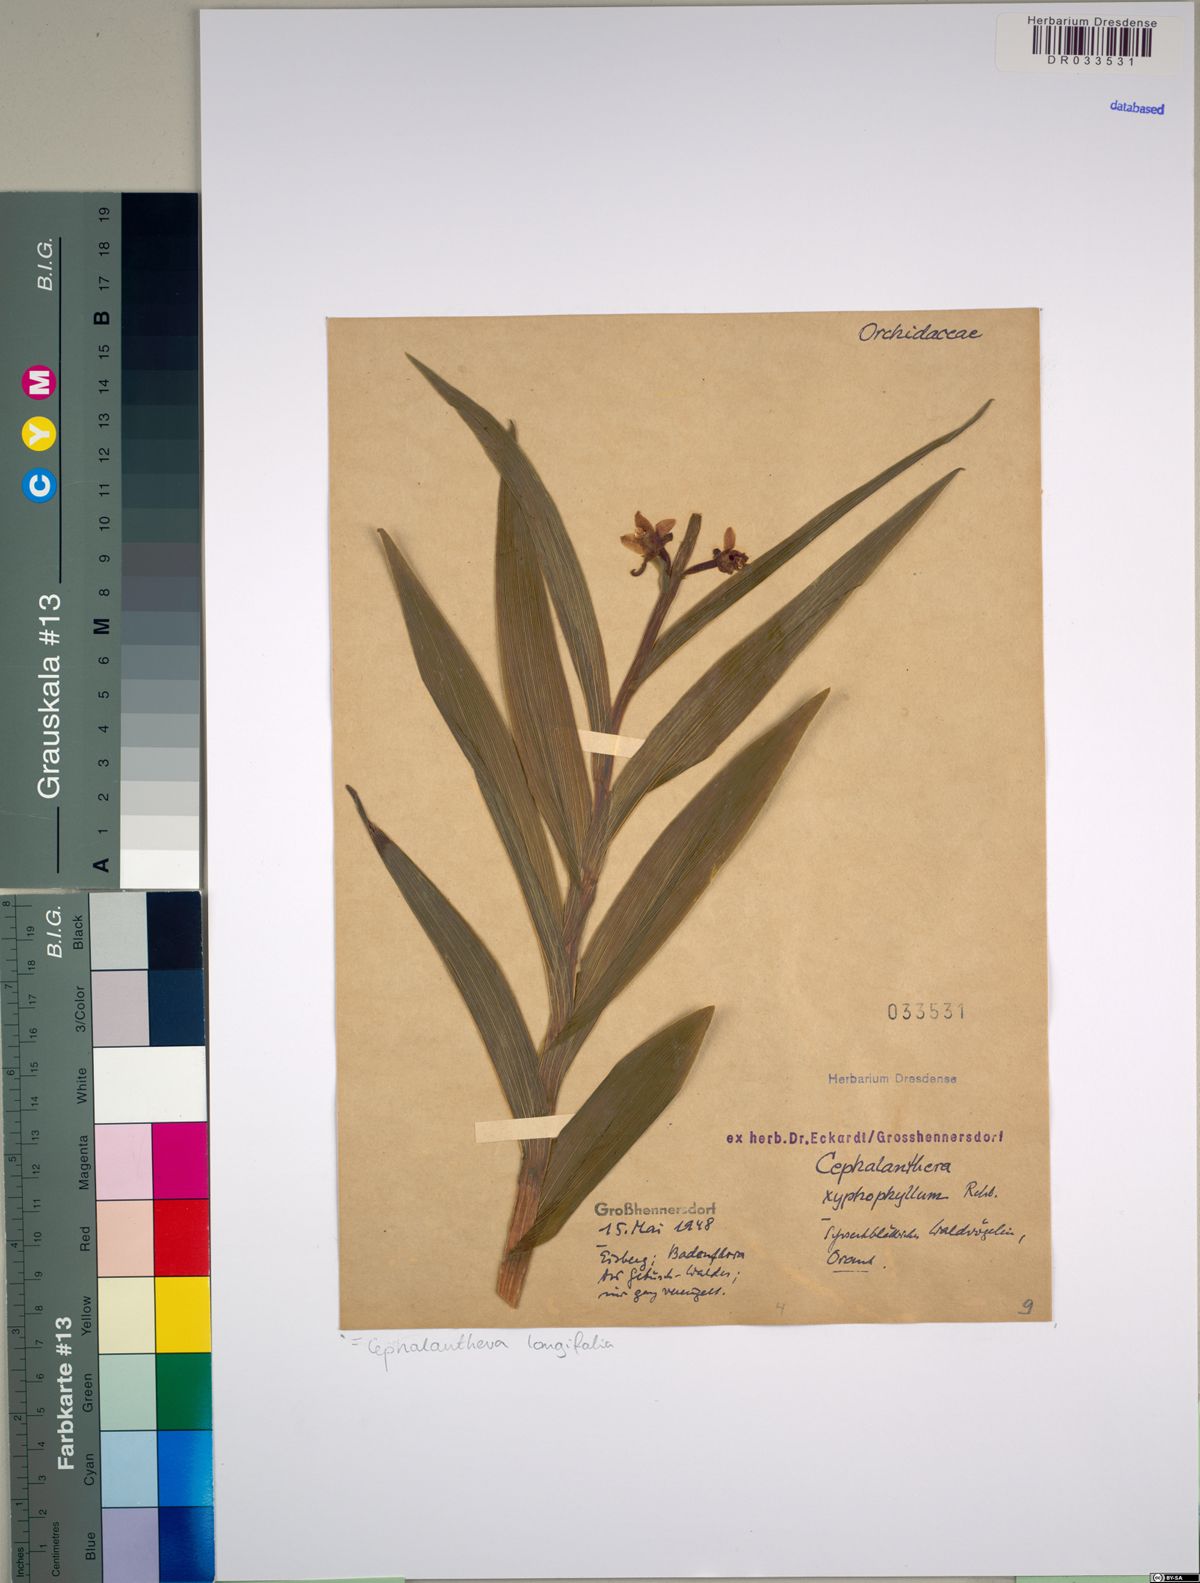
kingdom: Plantae
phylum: Tracheophyta
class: Liliopsida
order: Asparagales
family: Orchidaceae
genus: Cephalanthera
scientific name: Cephalanthera longifolia
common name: Narrow-leaved helleborine
